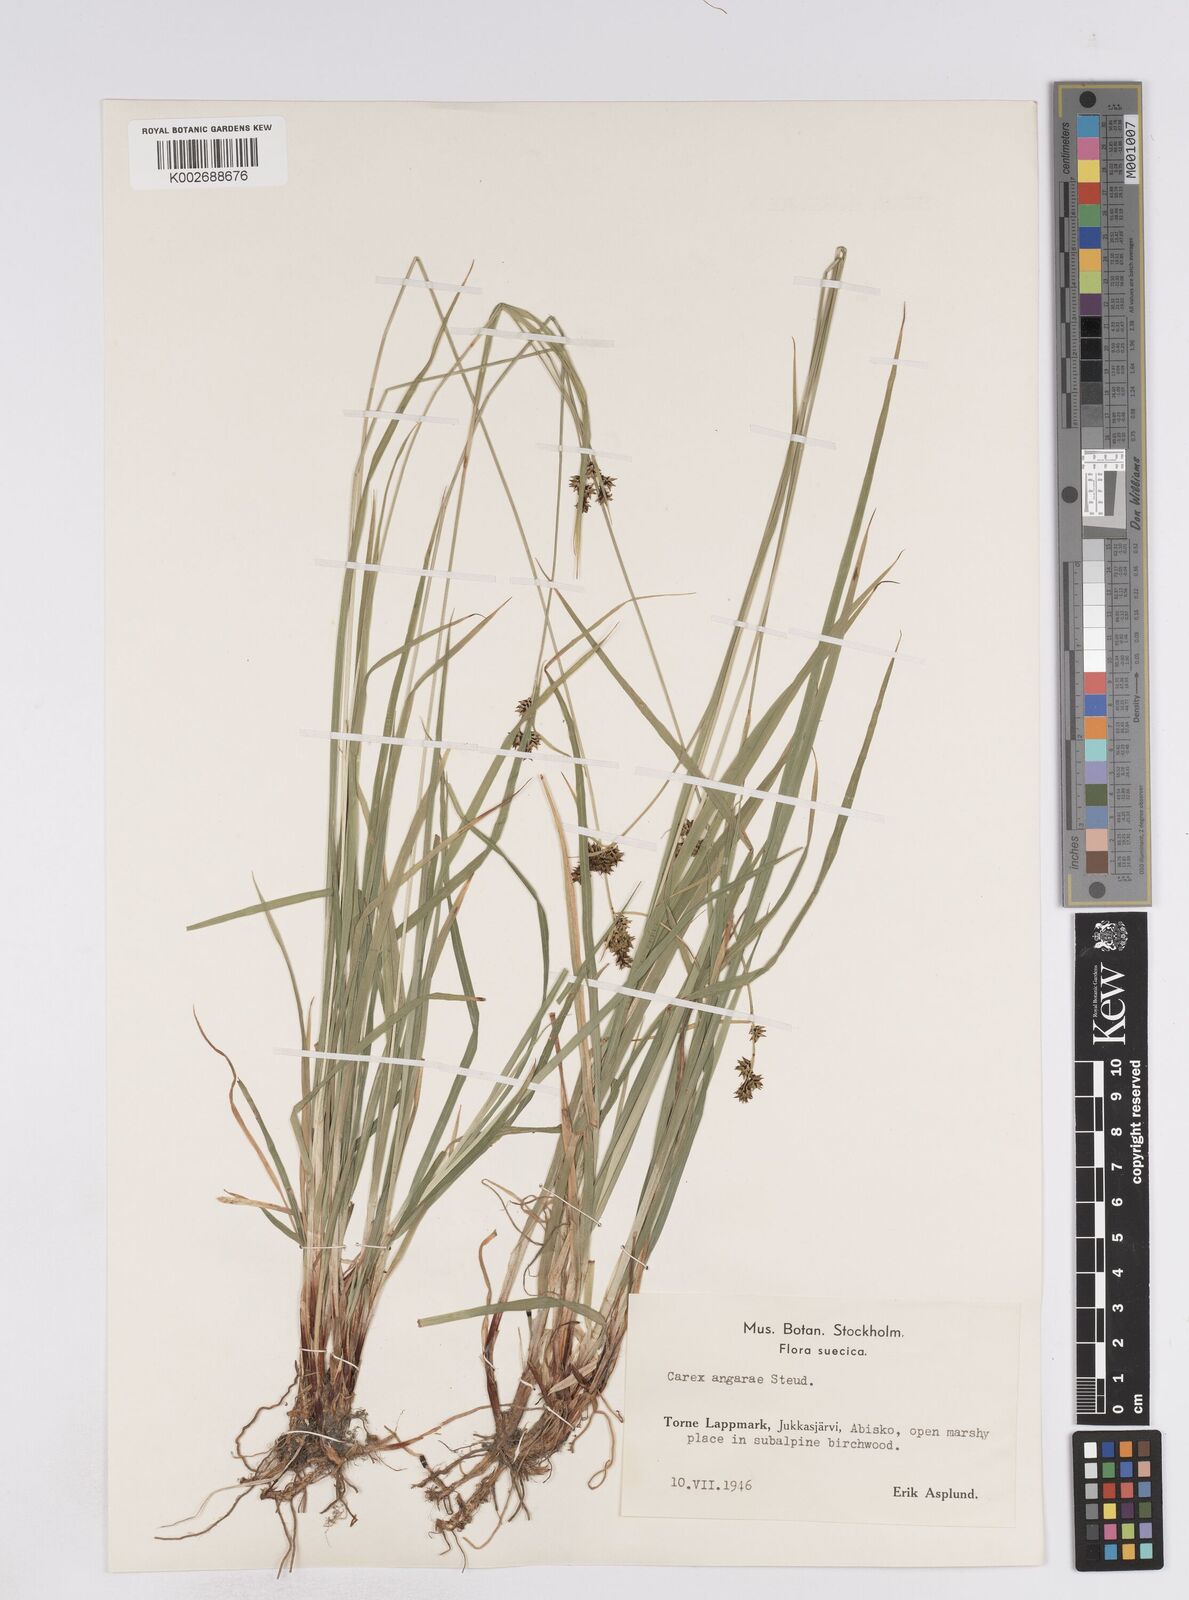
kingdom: Plantae
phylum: Tracheophyta
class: Liliopsida
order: Poales
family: Cyperaceae
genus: Carex
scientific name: Carex media
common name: Alpine sedge
